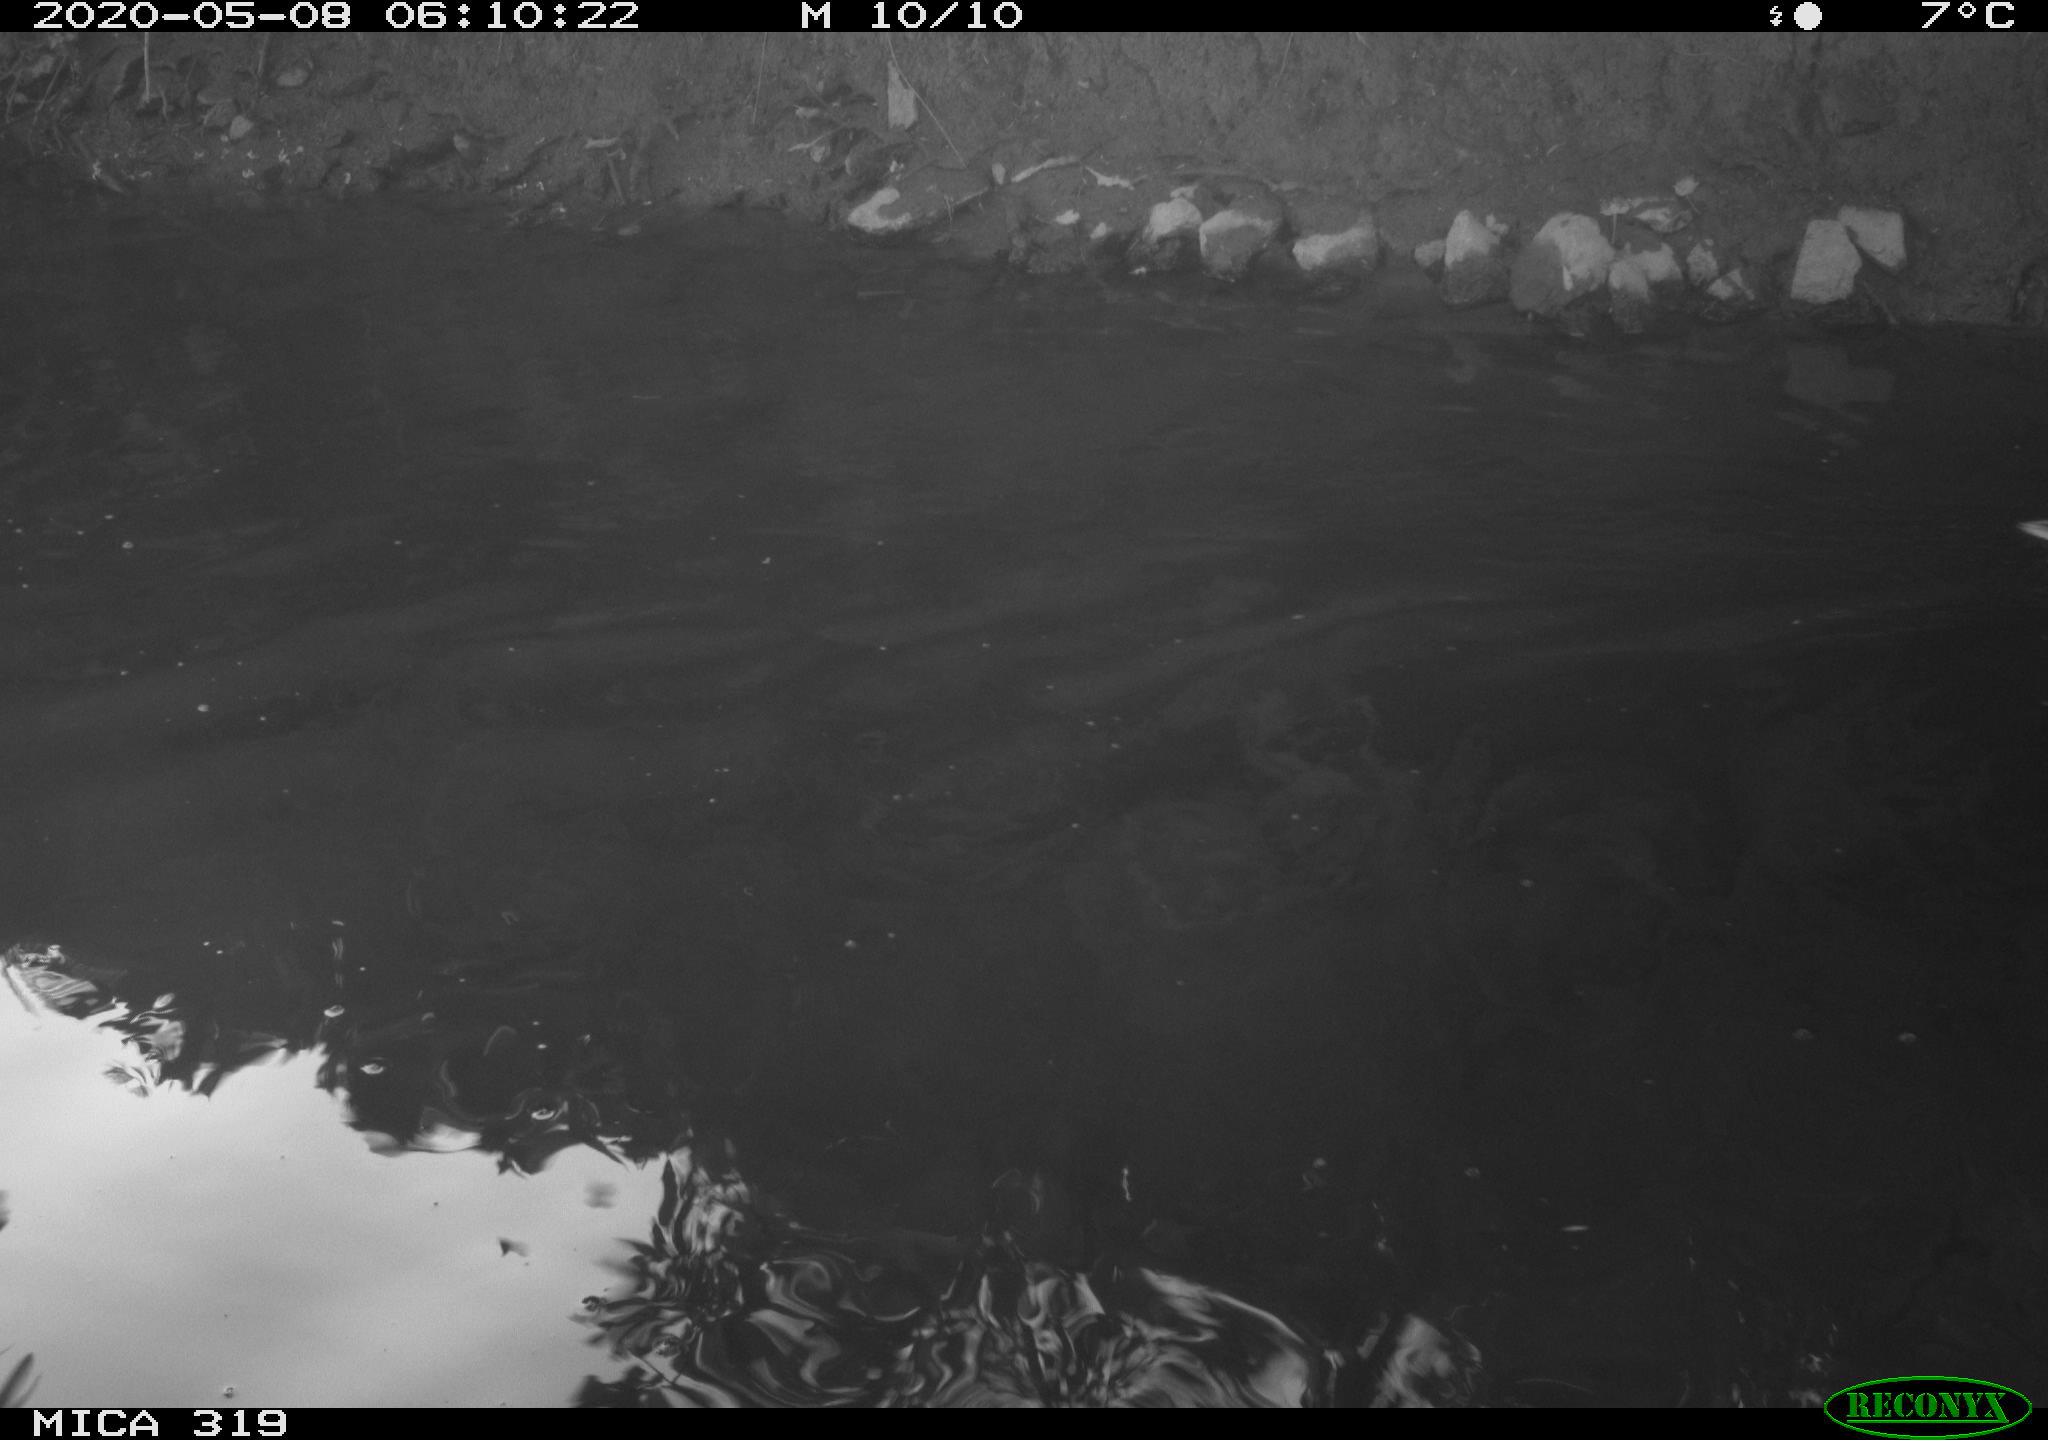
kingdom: Animalia
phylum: Chordata
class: Aves
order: Anseriformes
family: Anatidae
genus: Anas
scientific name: Anas platyrhynchos
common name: Mallard
